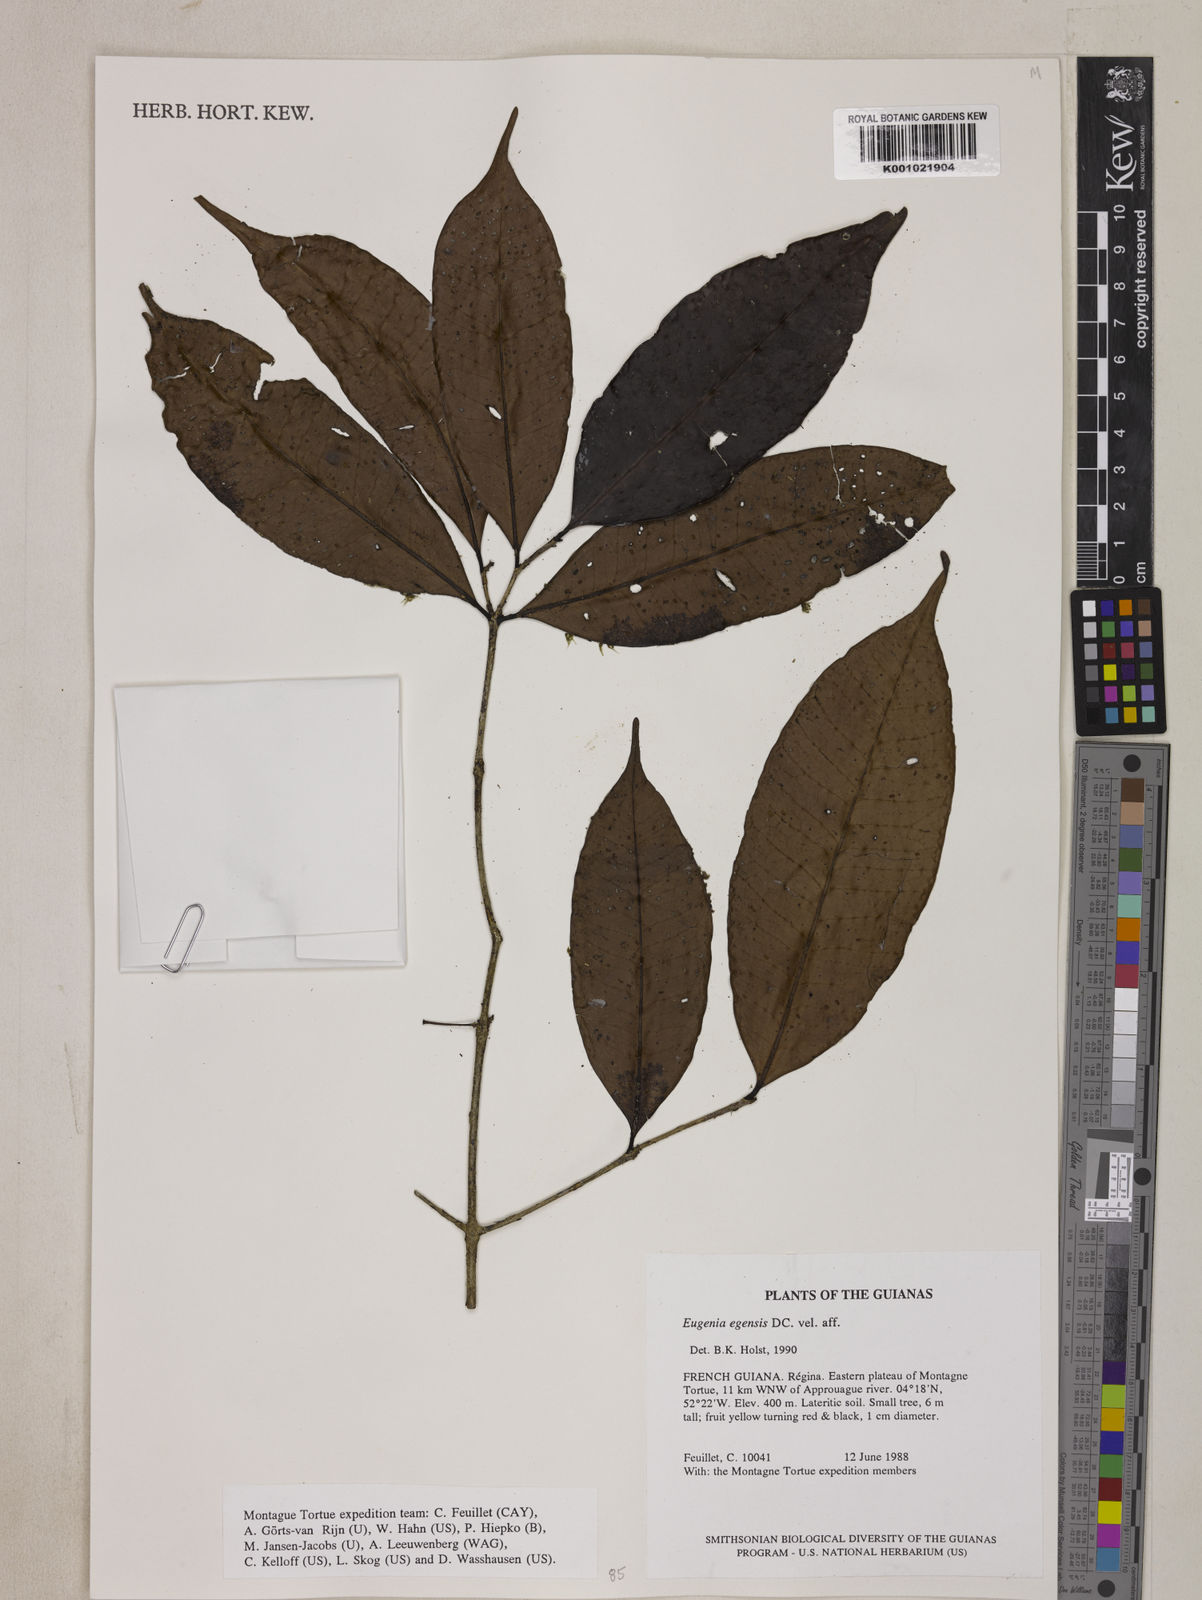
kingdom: Plantae
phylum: Tracheophyta
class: Magnoliopsida
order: Myrtales
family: Myrtaceae
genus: Eugenia
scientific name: Eugenia egensis
